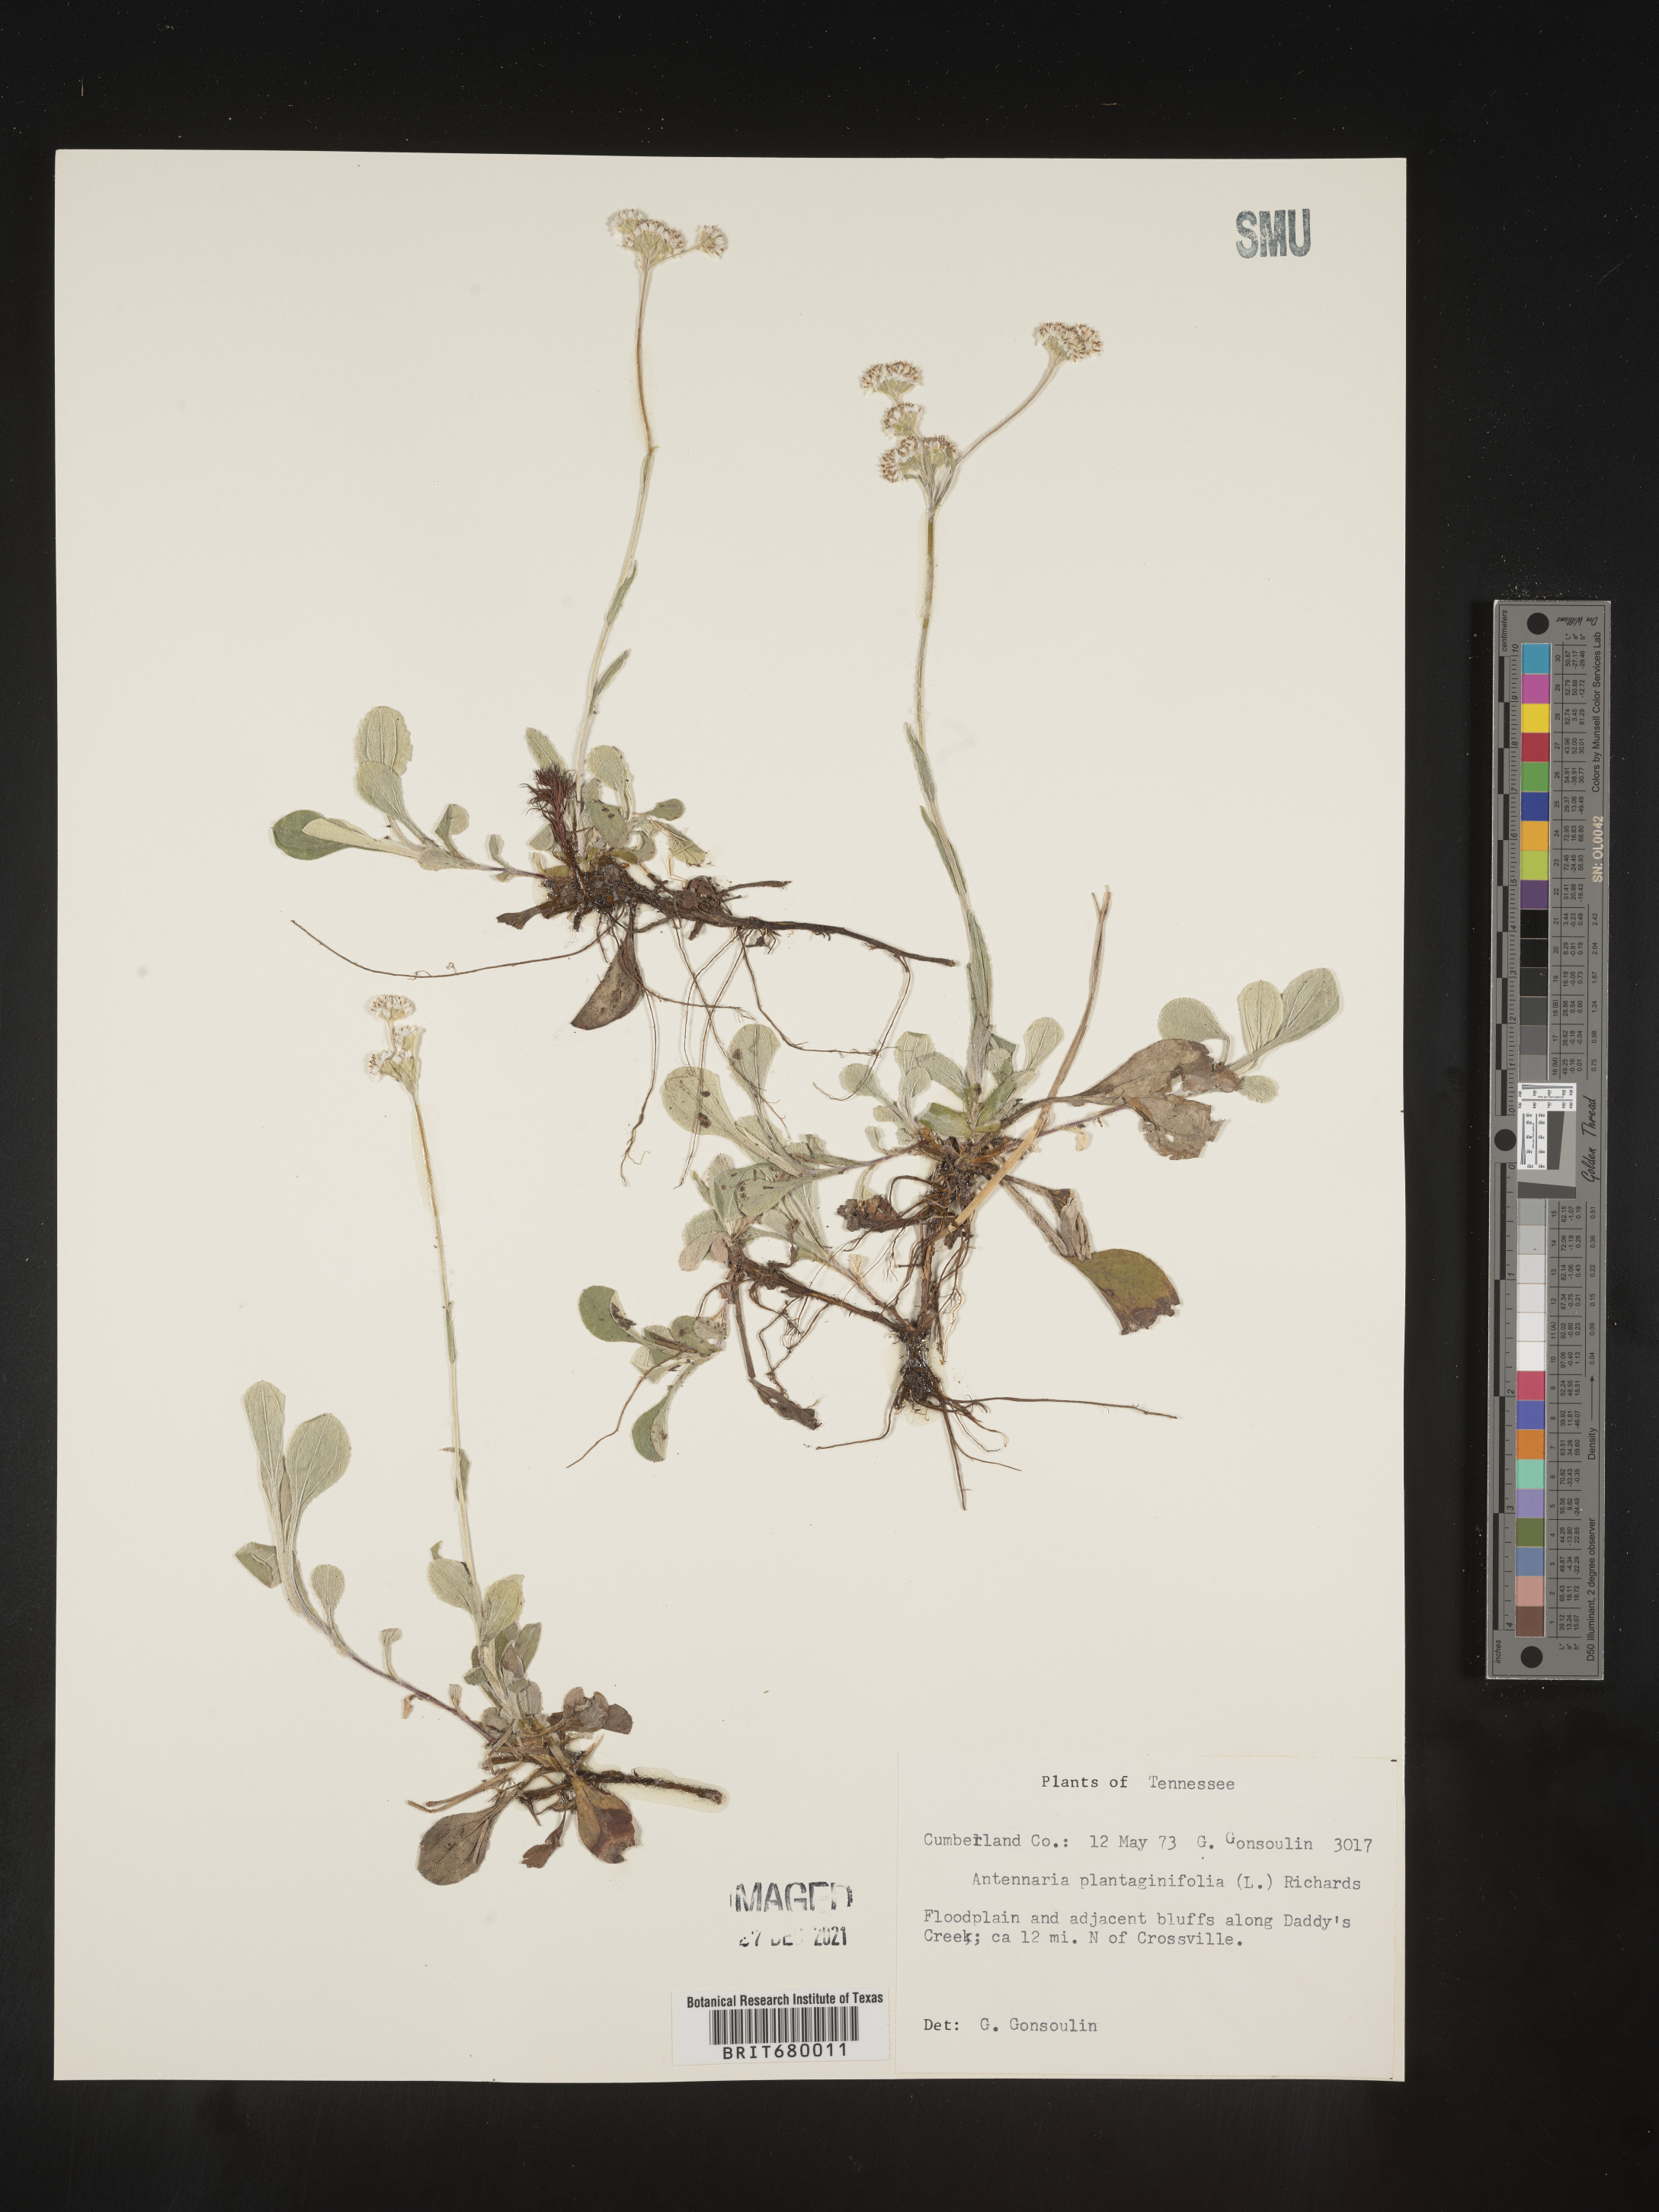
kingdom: Plantae
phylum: Tracheophyta
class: Magnoliopsida
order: Asterales
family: Asteraceae
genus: Antennaria
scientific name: Antennaria plantaginifolia
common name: Plantain-leaved pussytoes
